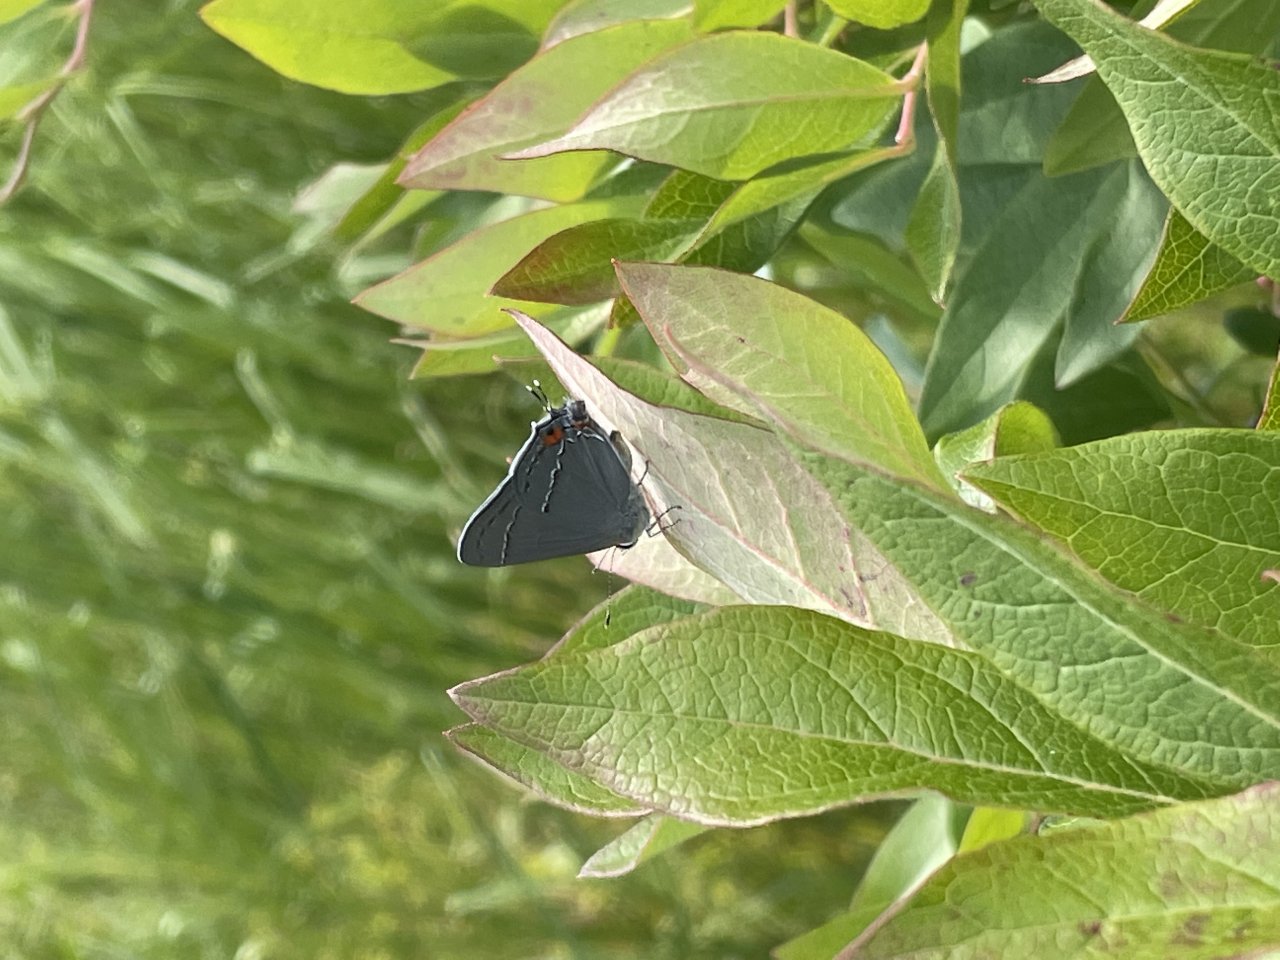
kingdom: Animalia
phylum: Arthropoda
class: Insecta
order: Lepidoptera
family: Lycaenidae
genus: Strymon
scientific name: Strymon melinus
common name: Gray Hairstreak
